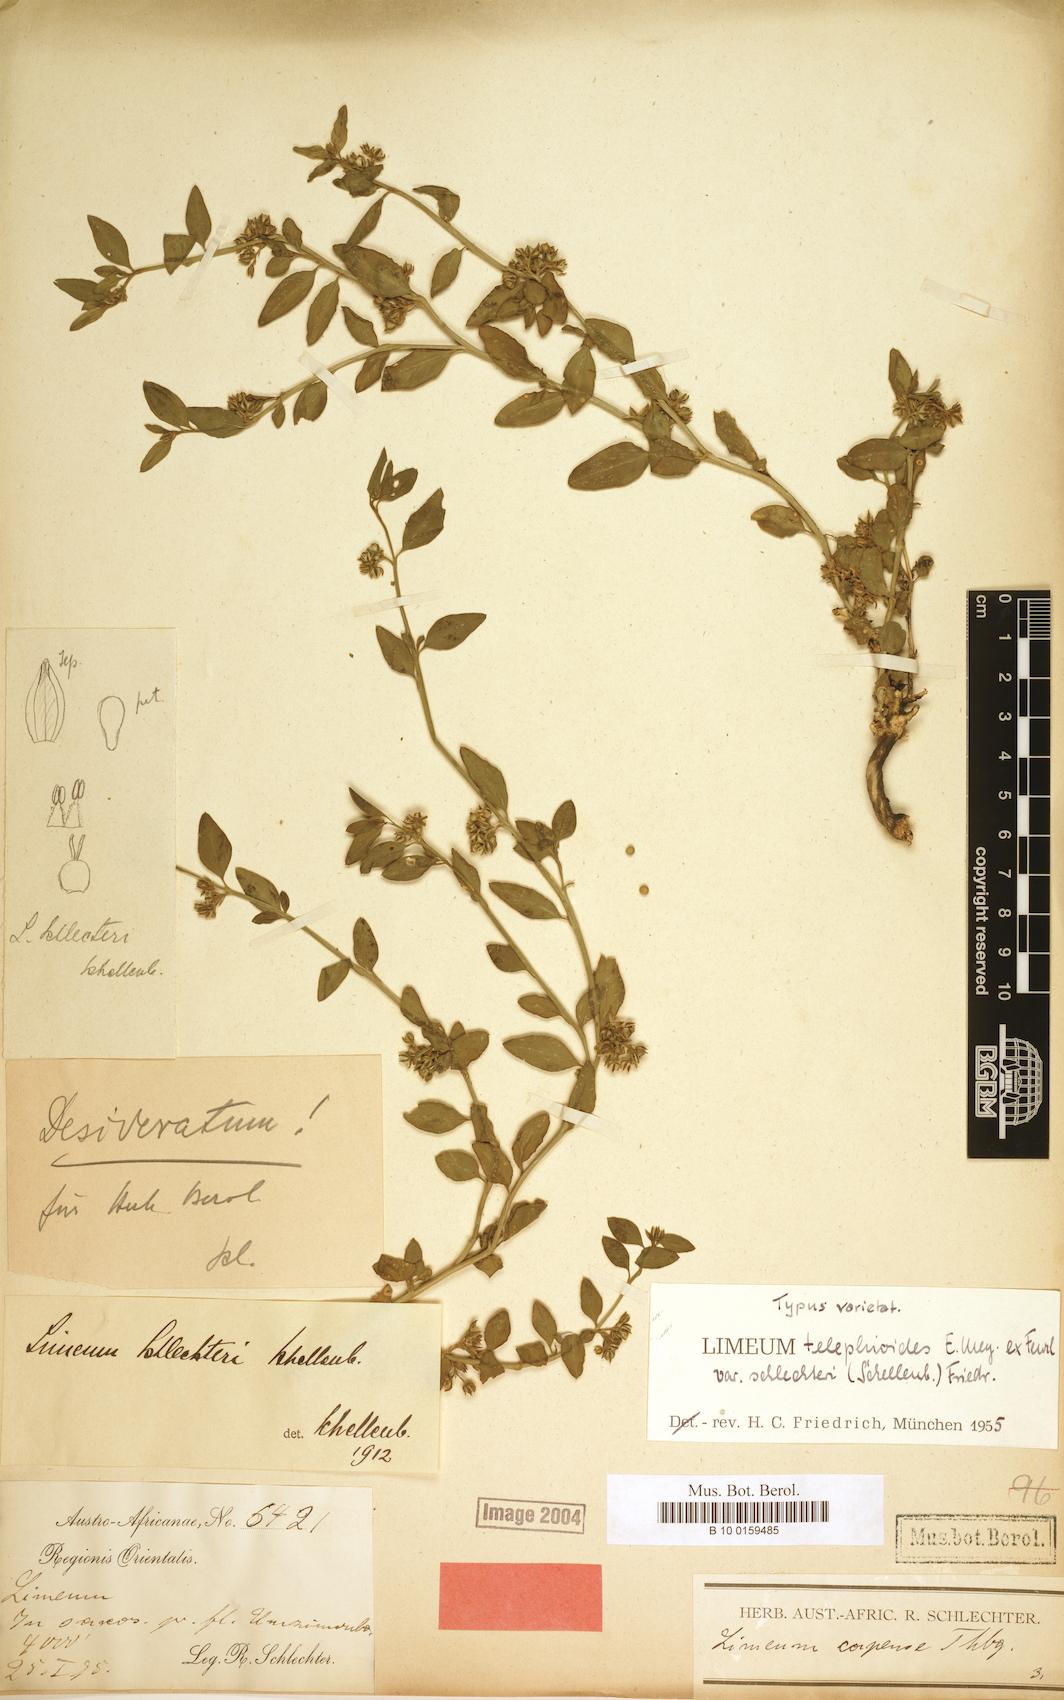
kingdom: Plantae
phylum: Tracheophyta
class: Magnoliopsida
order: Caryophyllales
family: Limeaceae
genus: Limeum
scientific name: Limeum telephioides
